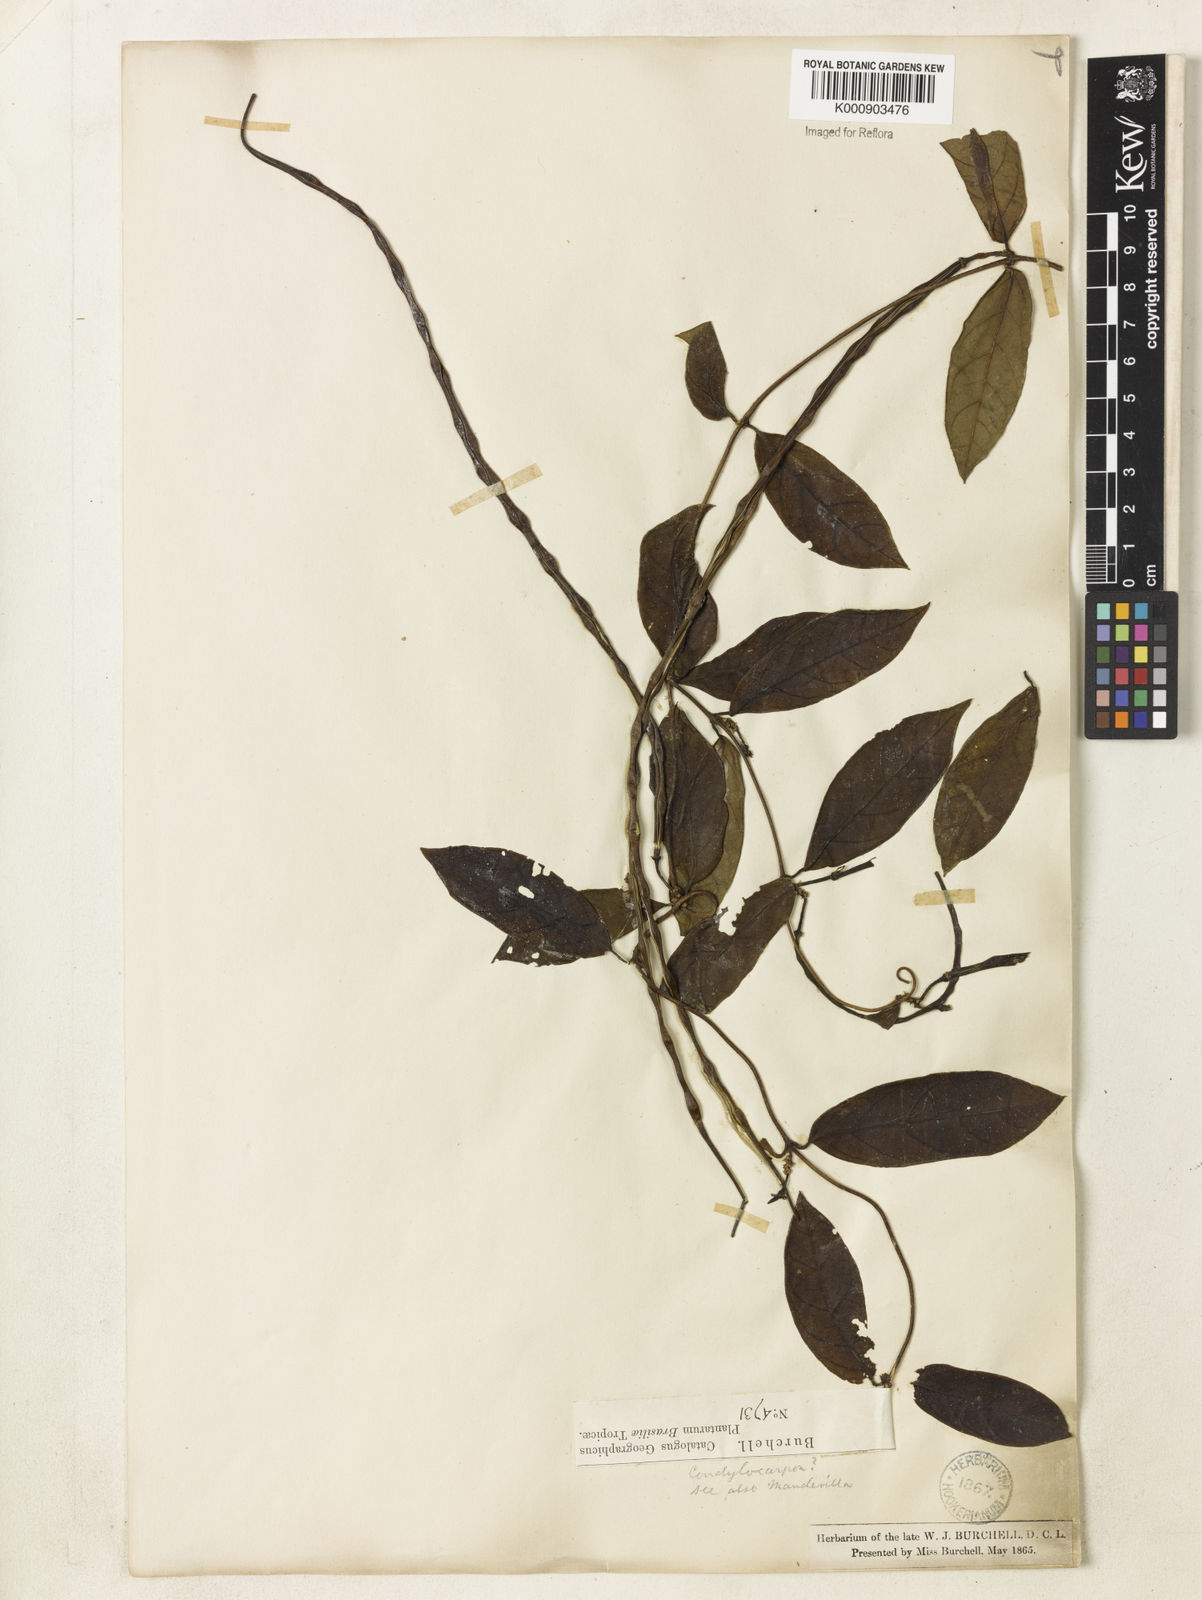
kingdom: Plantae
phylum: Tracheophyta
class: Magnoliopsida
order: Gentianales
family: Apocynaceae
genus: Prestonia
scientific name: Prestonia coalita
